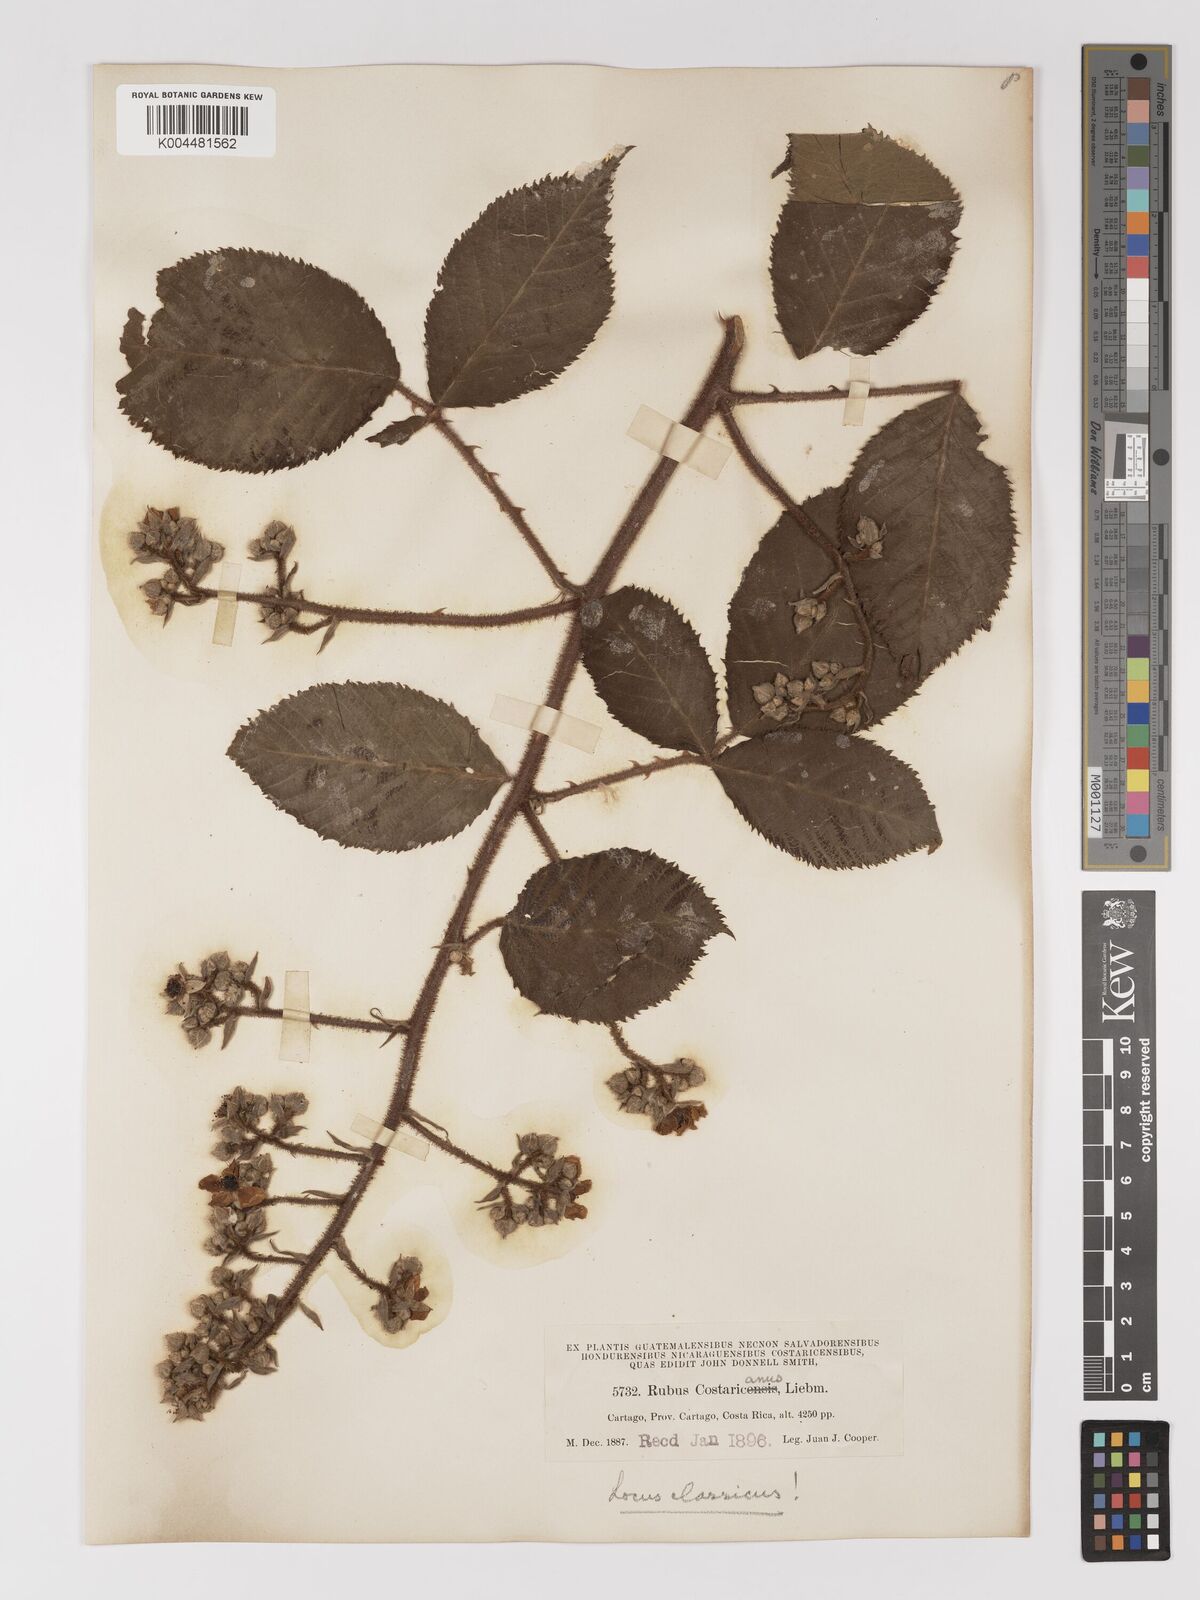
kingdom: Plantae
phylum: Tracheophyta
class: Magnoliopsida
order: Rosales
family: Rosaceae
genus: Rubus
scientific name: Rubus costaricanus
